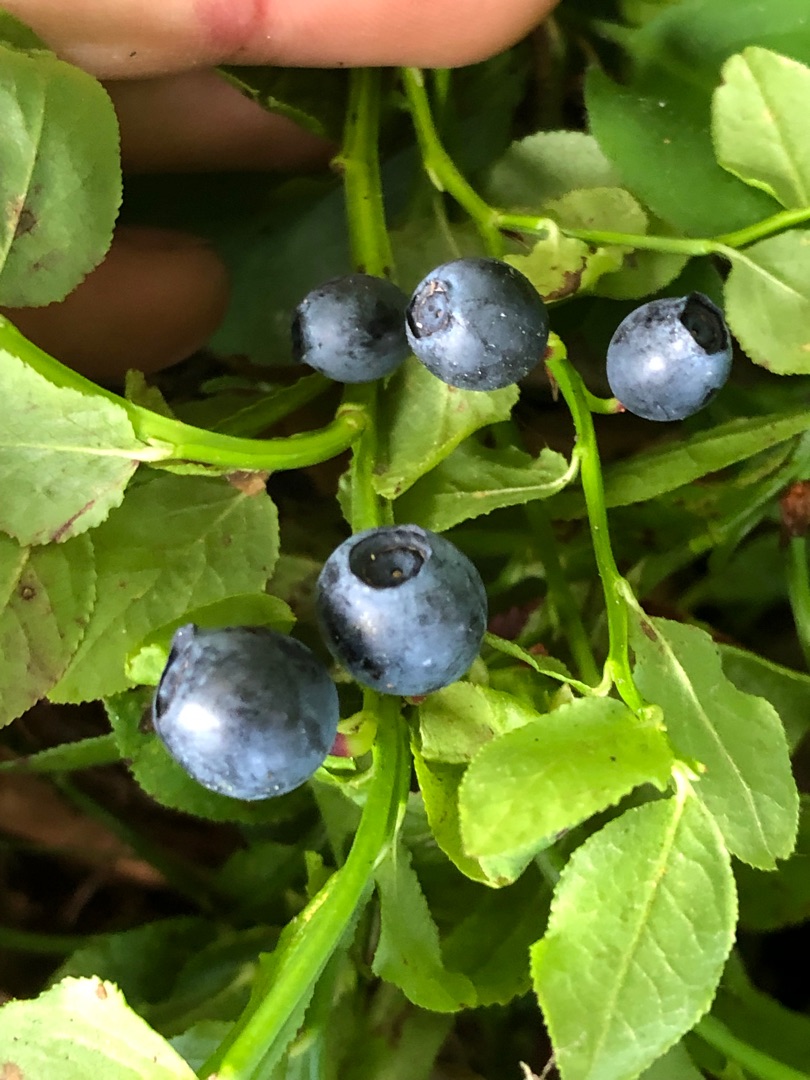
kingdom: Plantae
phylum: Tracheophyta
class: Magnoliopsida
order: Ericales
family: Ericaceae
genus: Vaccinium
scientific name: Vaccinium myrtillus
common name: Blåbær
